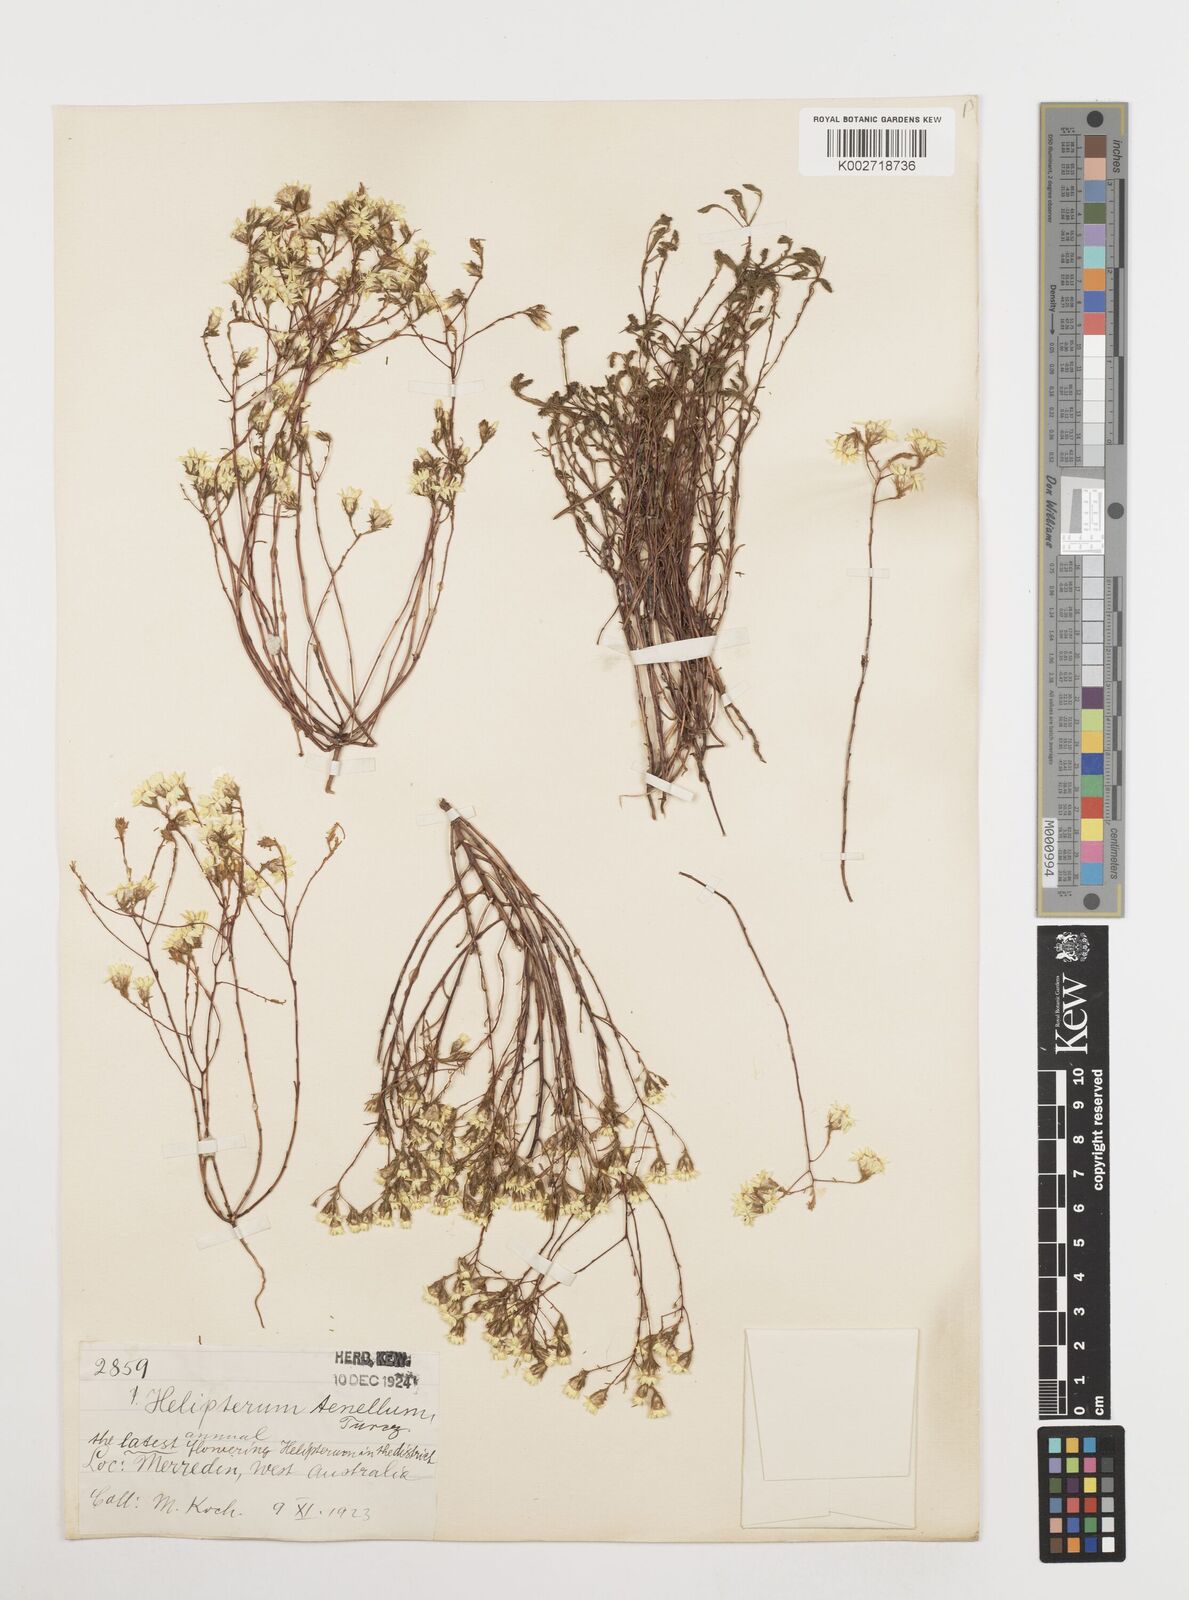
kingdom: Plantae
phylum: Tracheophyta
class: Magnoliopsida
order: Asterales
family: Asteraceae
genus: Erymophyllum
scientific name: Erymophyllum tenellum
